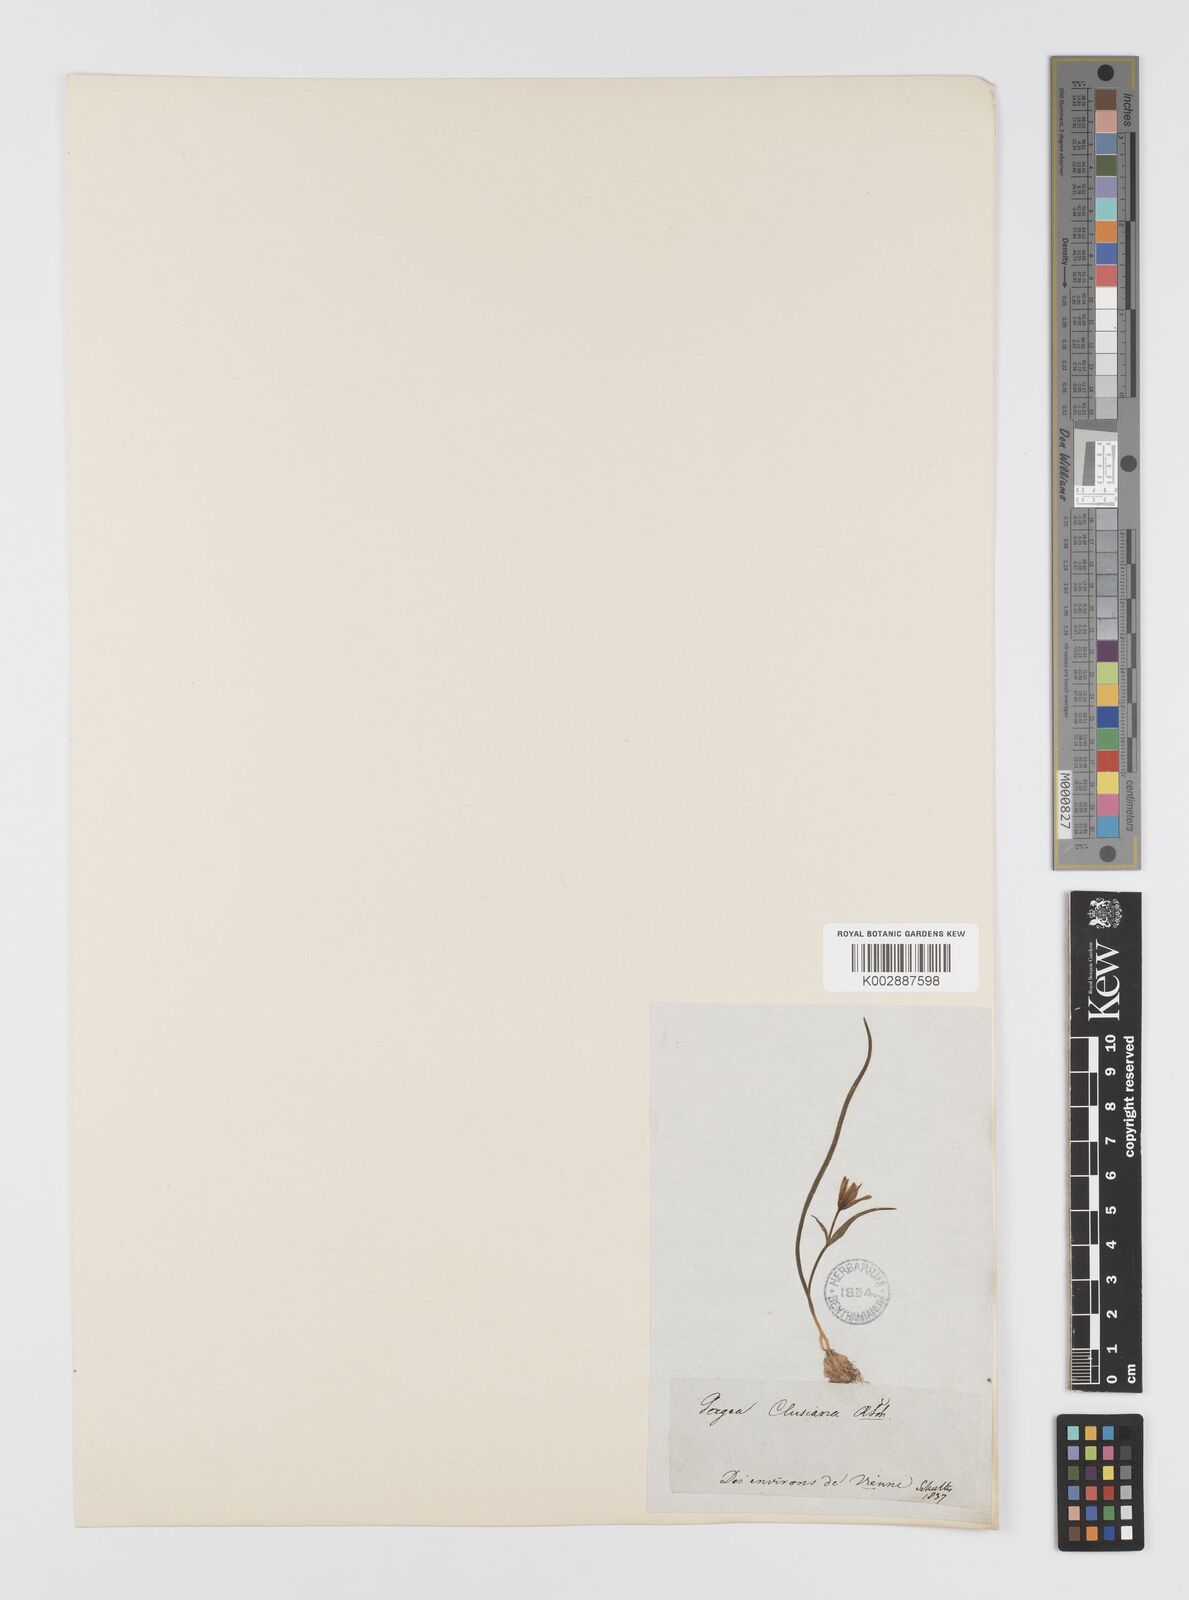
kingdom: Plantae
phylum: Tracheophyta
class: Liliopsida
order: Liliales
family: Liliaceae
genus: Gagea
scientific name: Gagea pusilla
